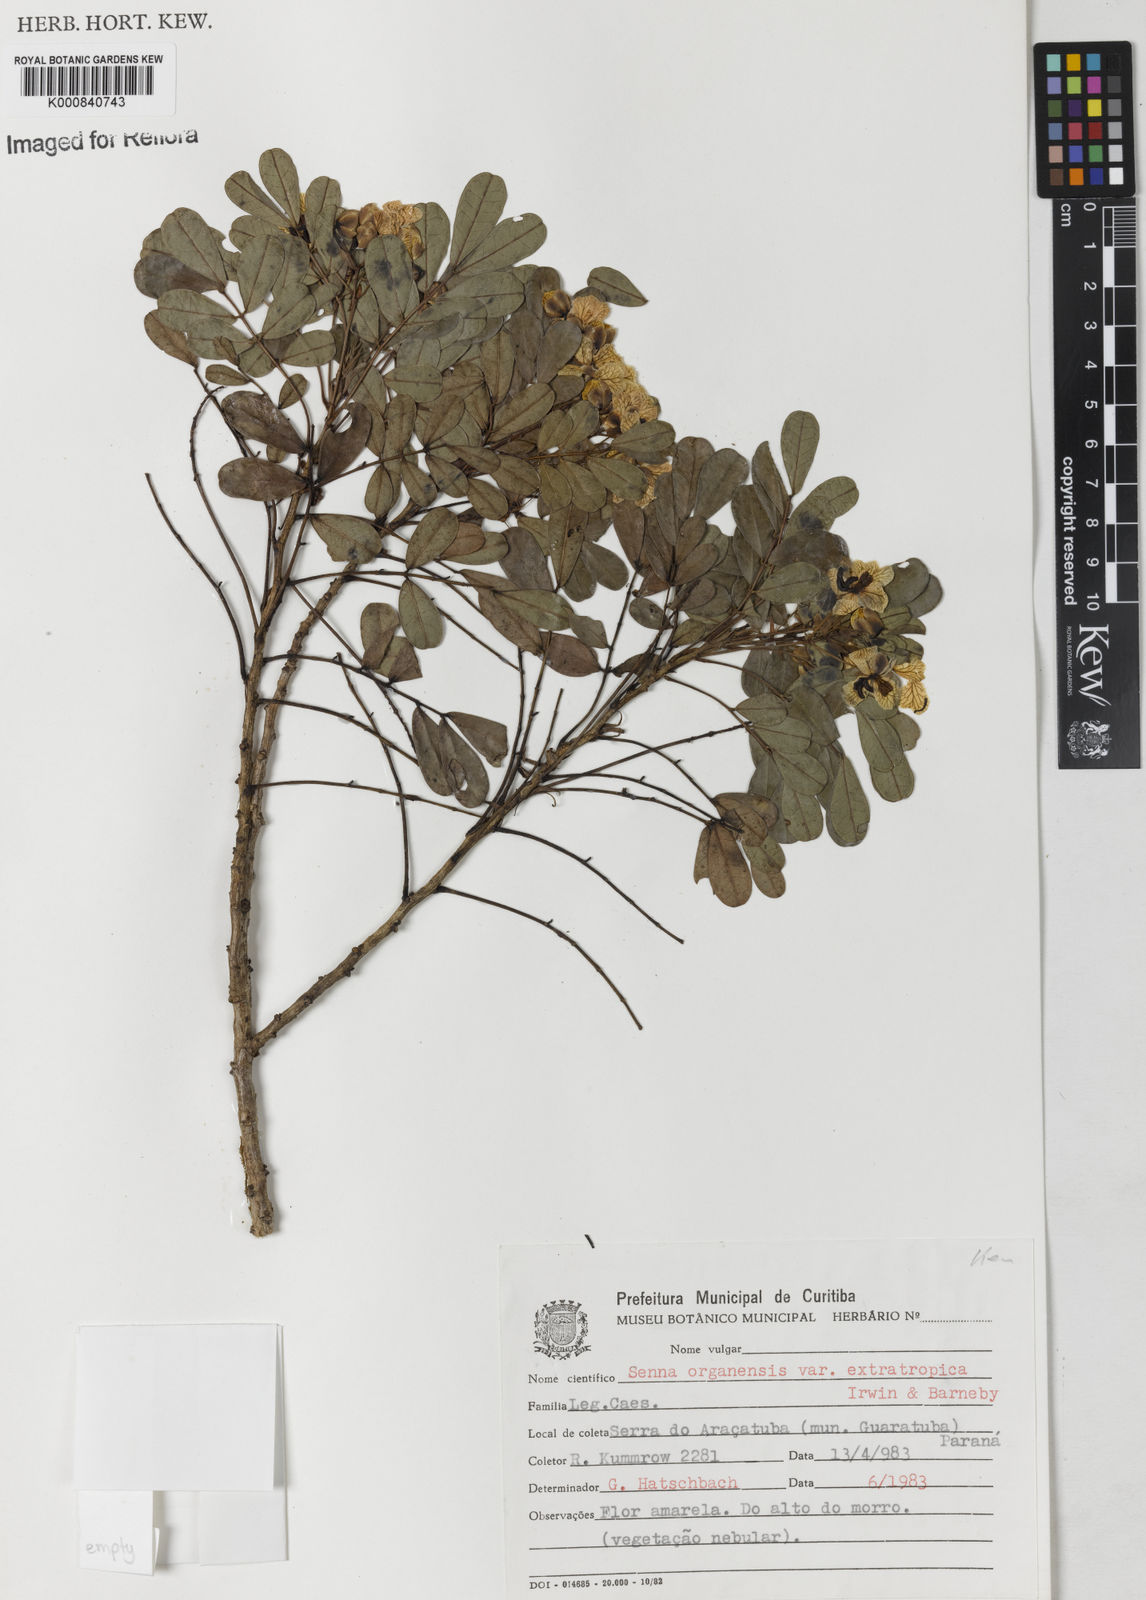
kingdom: Plantae
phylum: Tracheophyta
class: Magnoliopsida
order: Fabales
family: Fabaceae
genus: Senna
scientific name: Senna organensis
